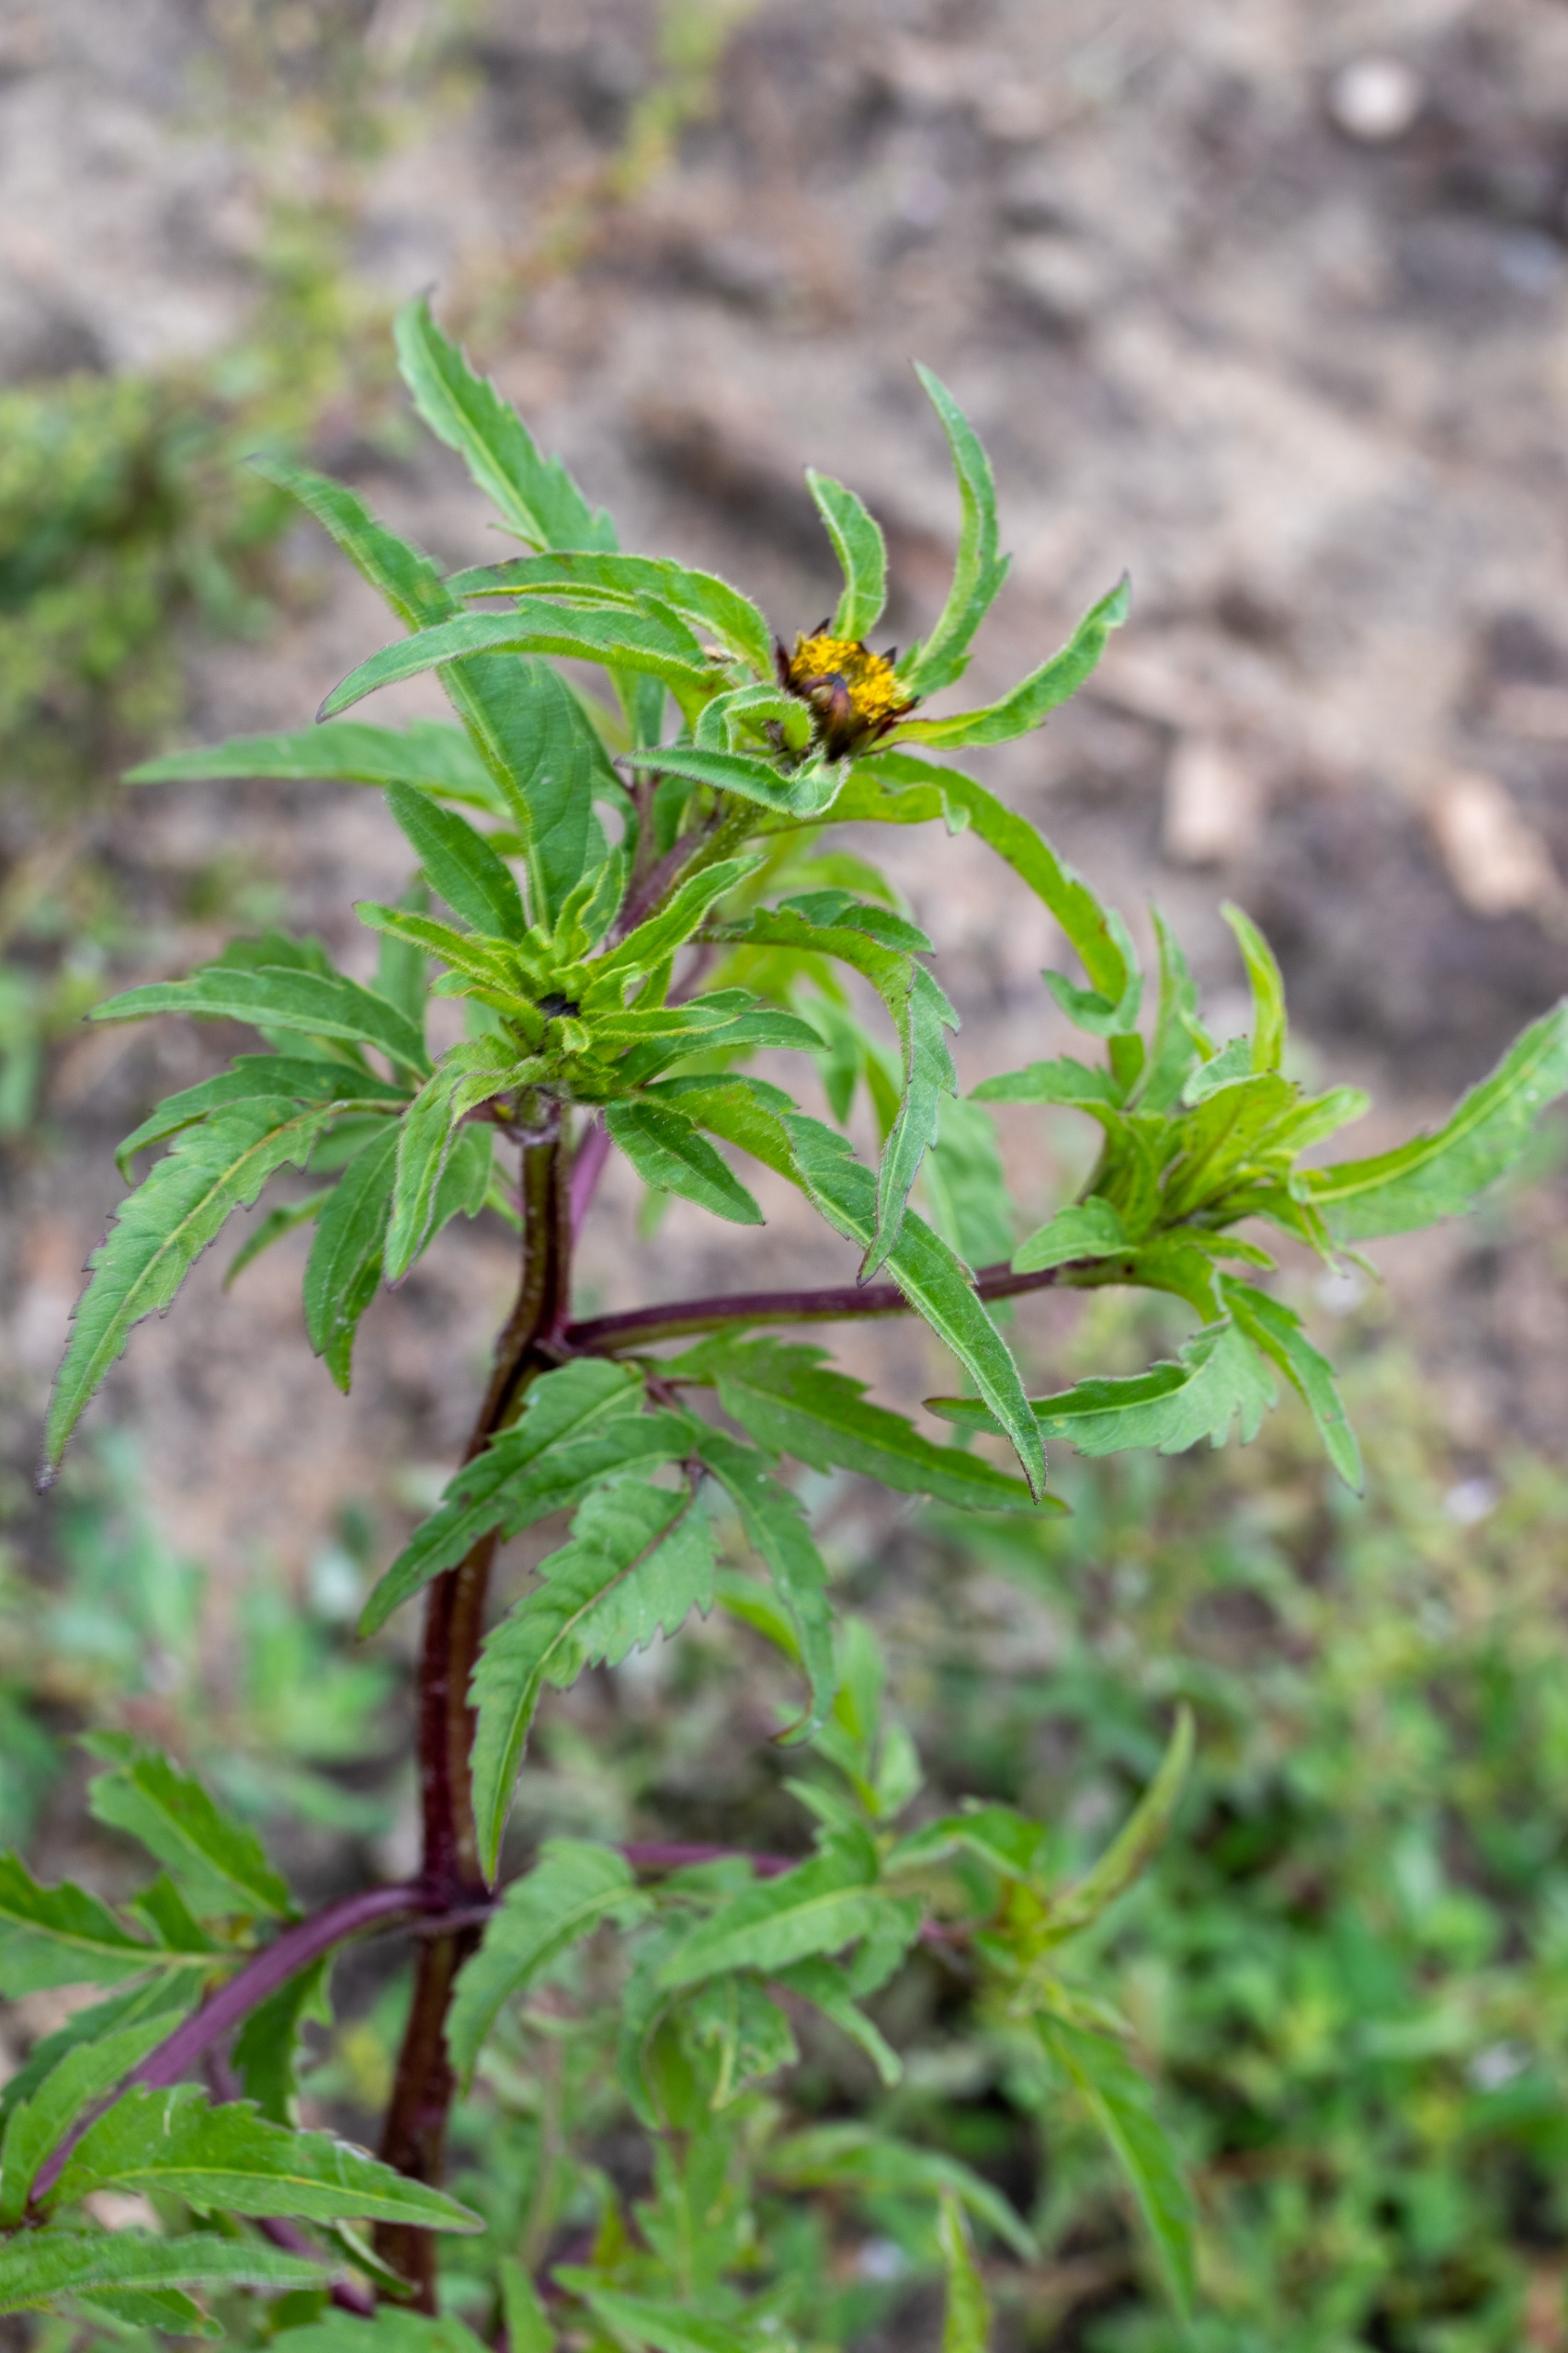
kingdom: Plantae
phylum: Tracheophyta
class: Magnoliopsida
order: Asterales
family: Asteraceae
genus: Bidens
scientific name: Bidens tripartita
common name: Fliget brøndsel
